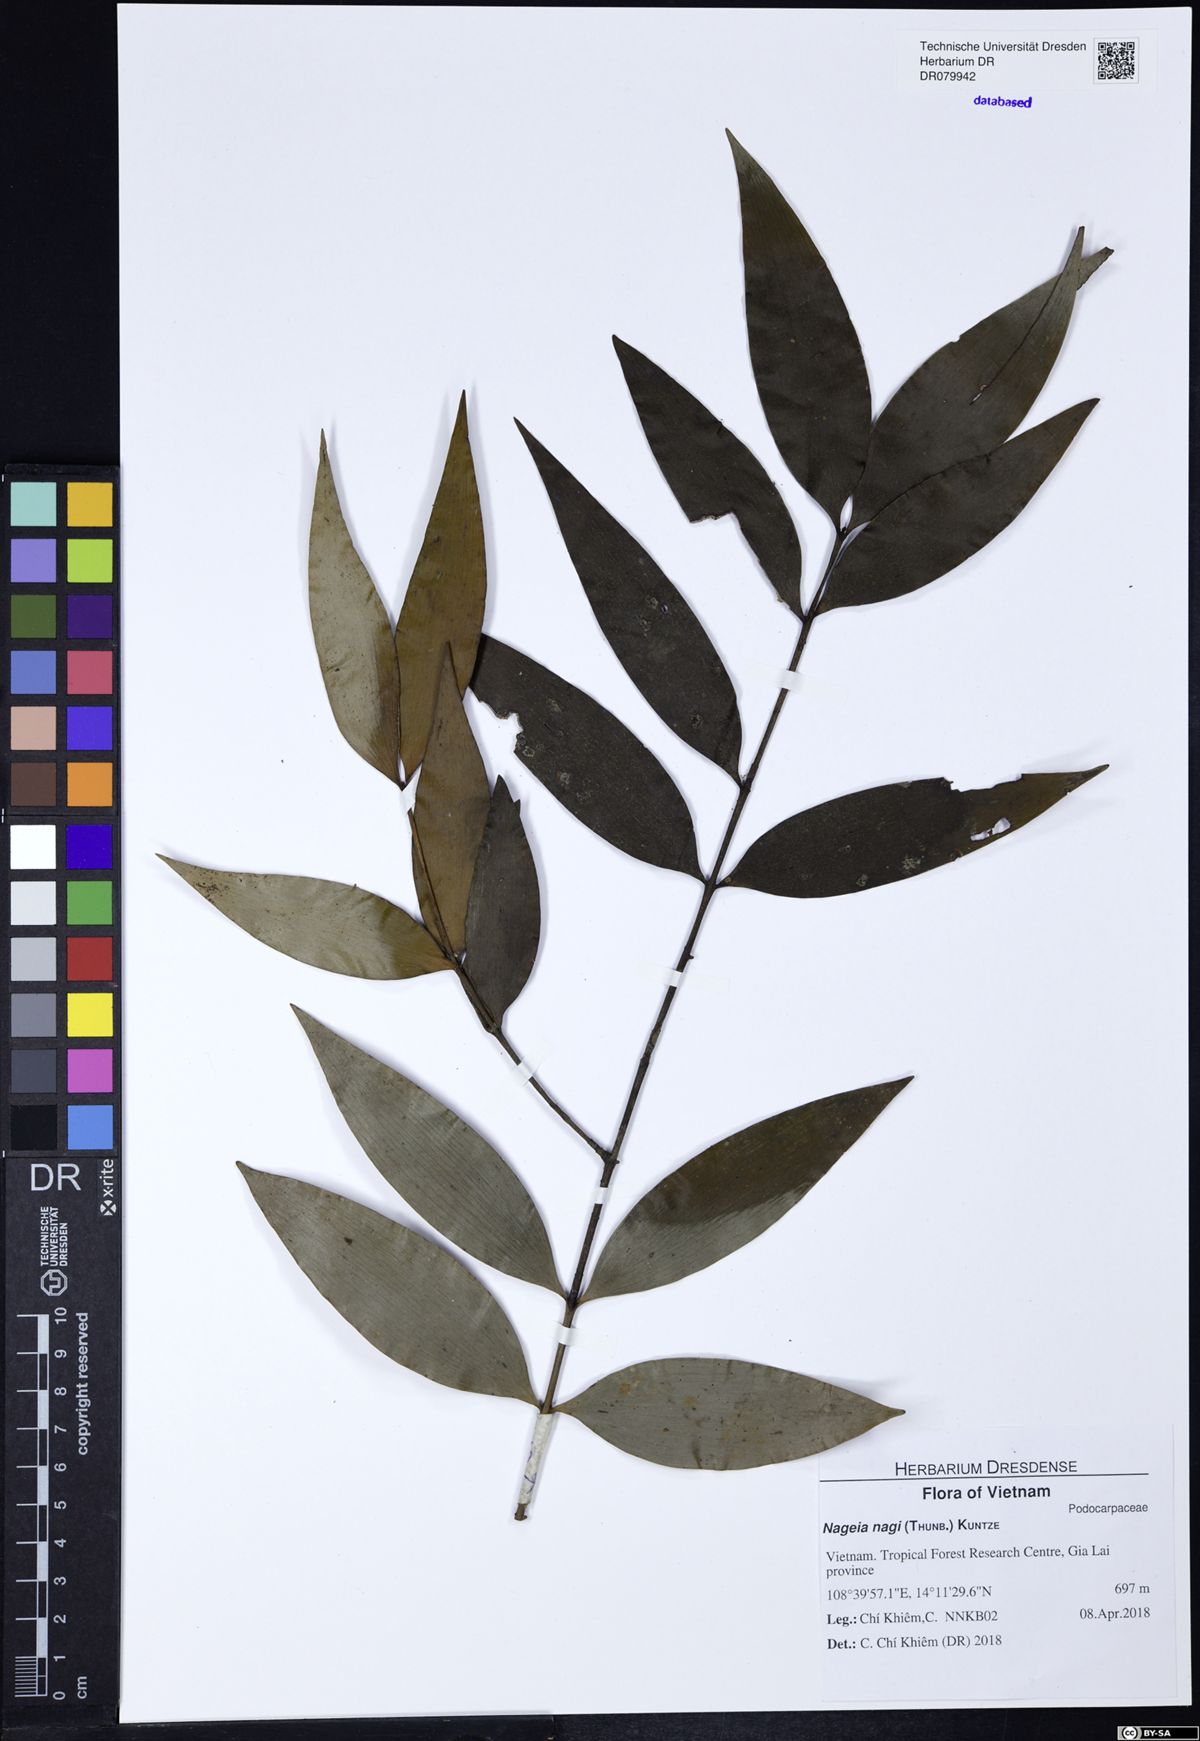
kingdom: Plantae
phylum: Tracheophyta
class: Pinopsida
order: Pinales
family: Podocarpaceae
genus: Nageia
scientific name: Nageia nagi
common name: Kaphal
